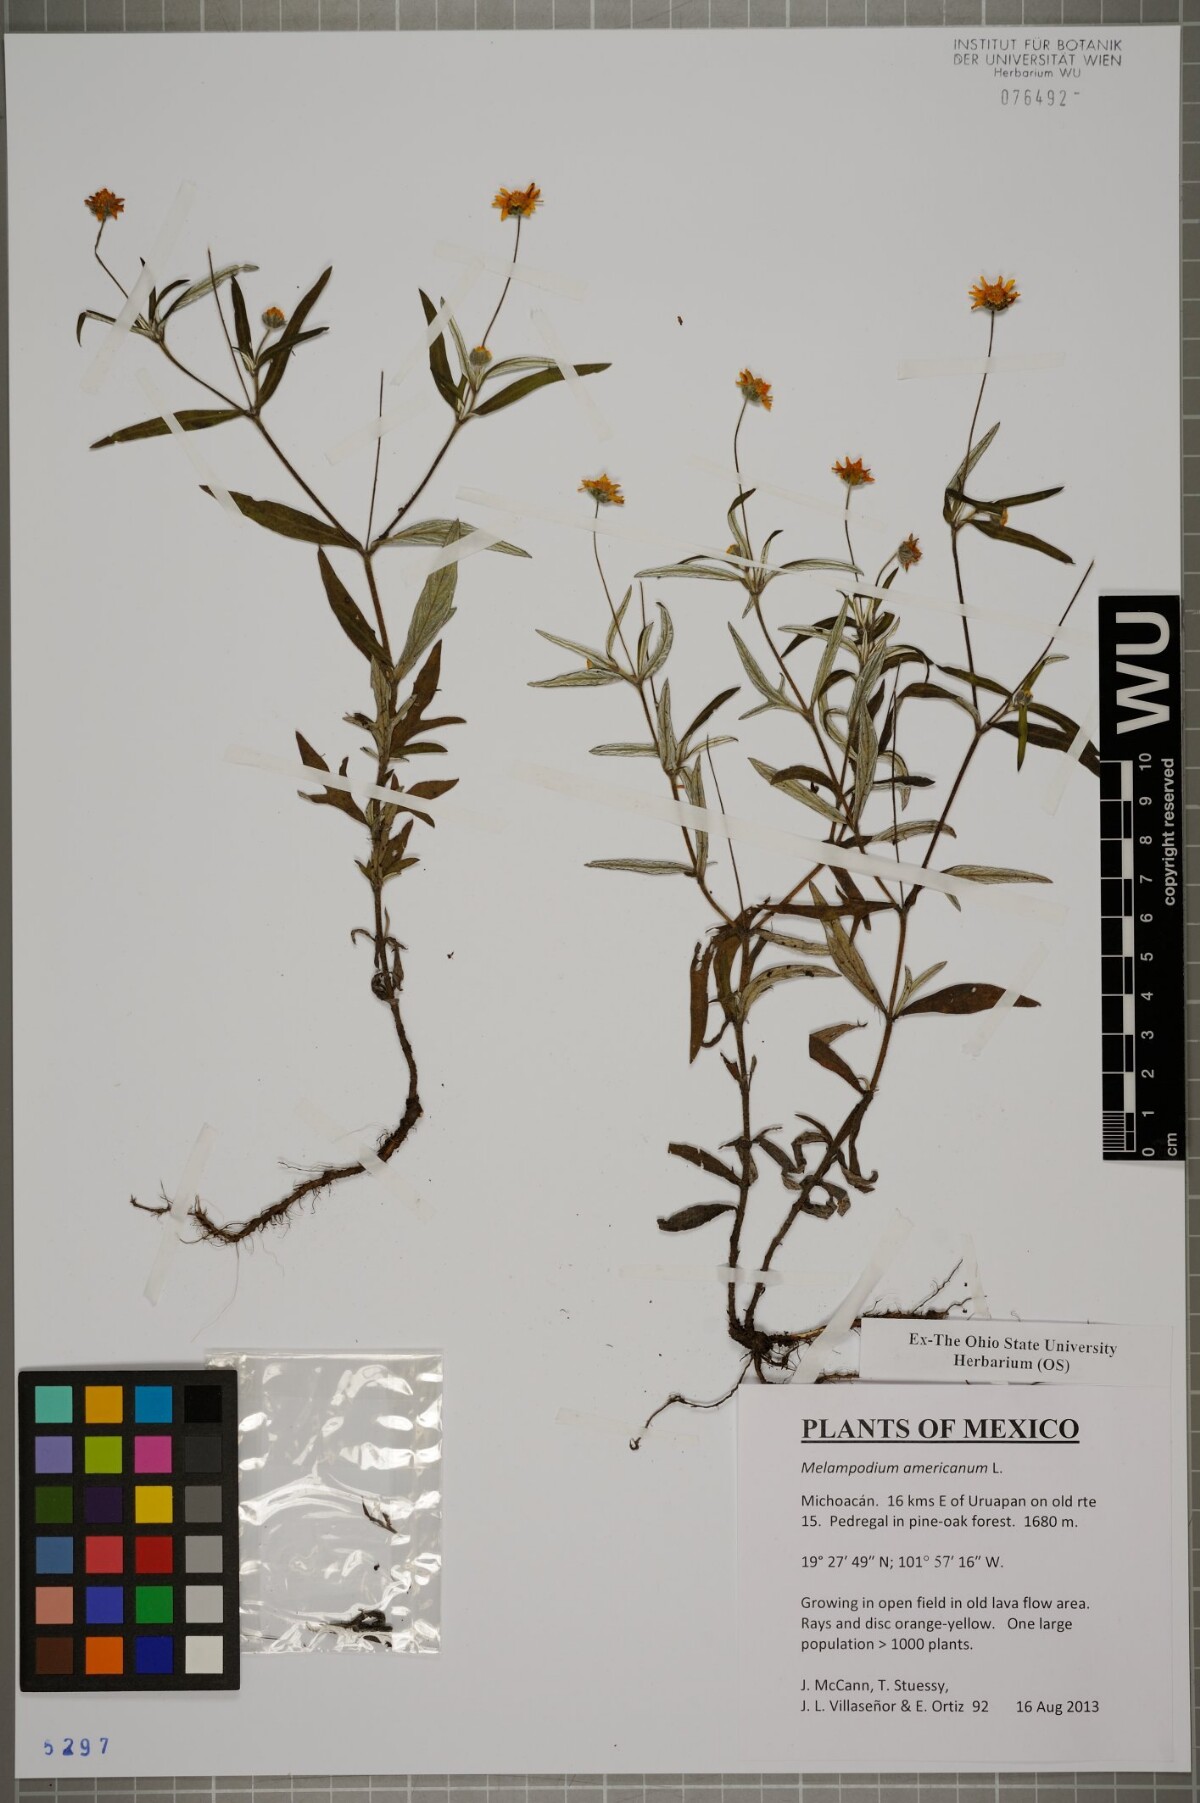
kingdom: Plantae
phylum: Tracheophyta
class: Magnoliopsida
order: Asterales
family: Asteraceae
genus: Melampodium
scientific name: Melampodium americanum
